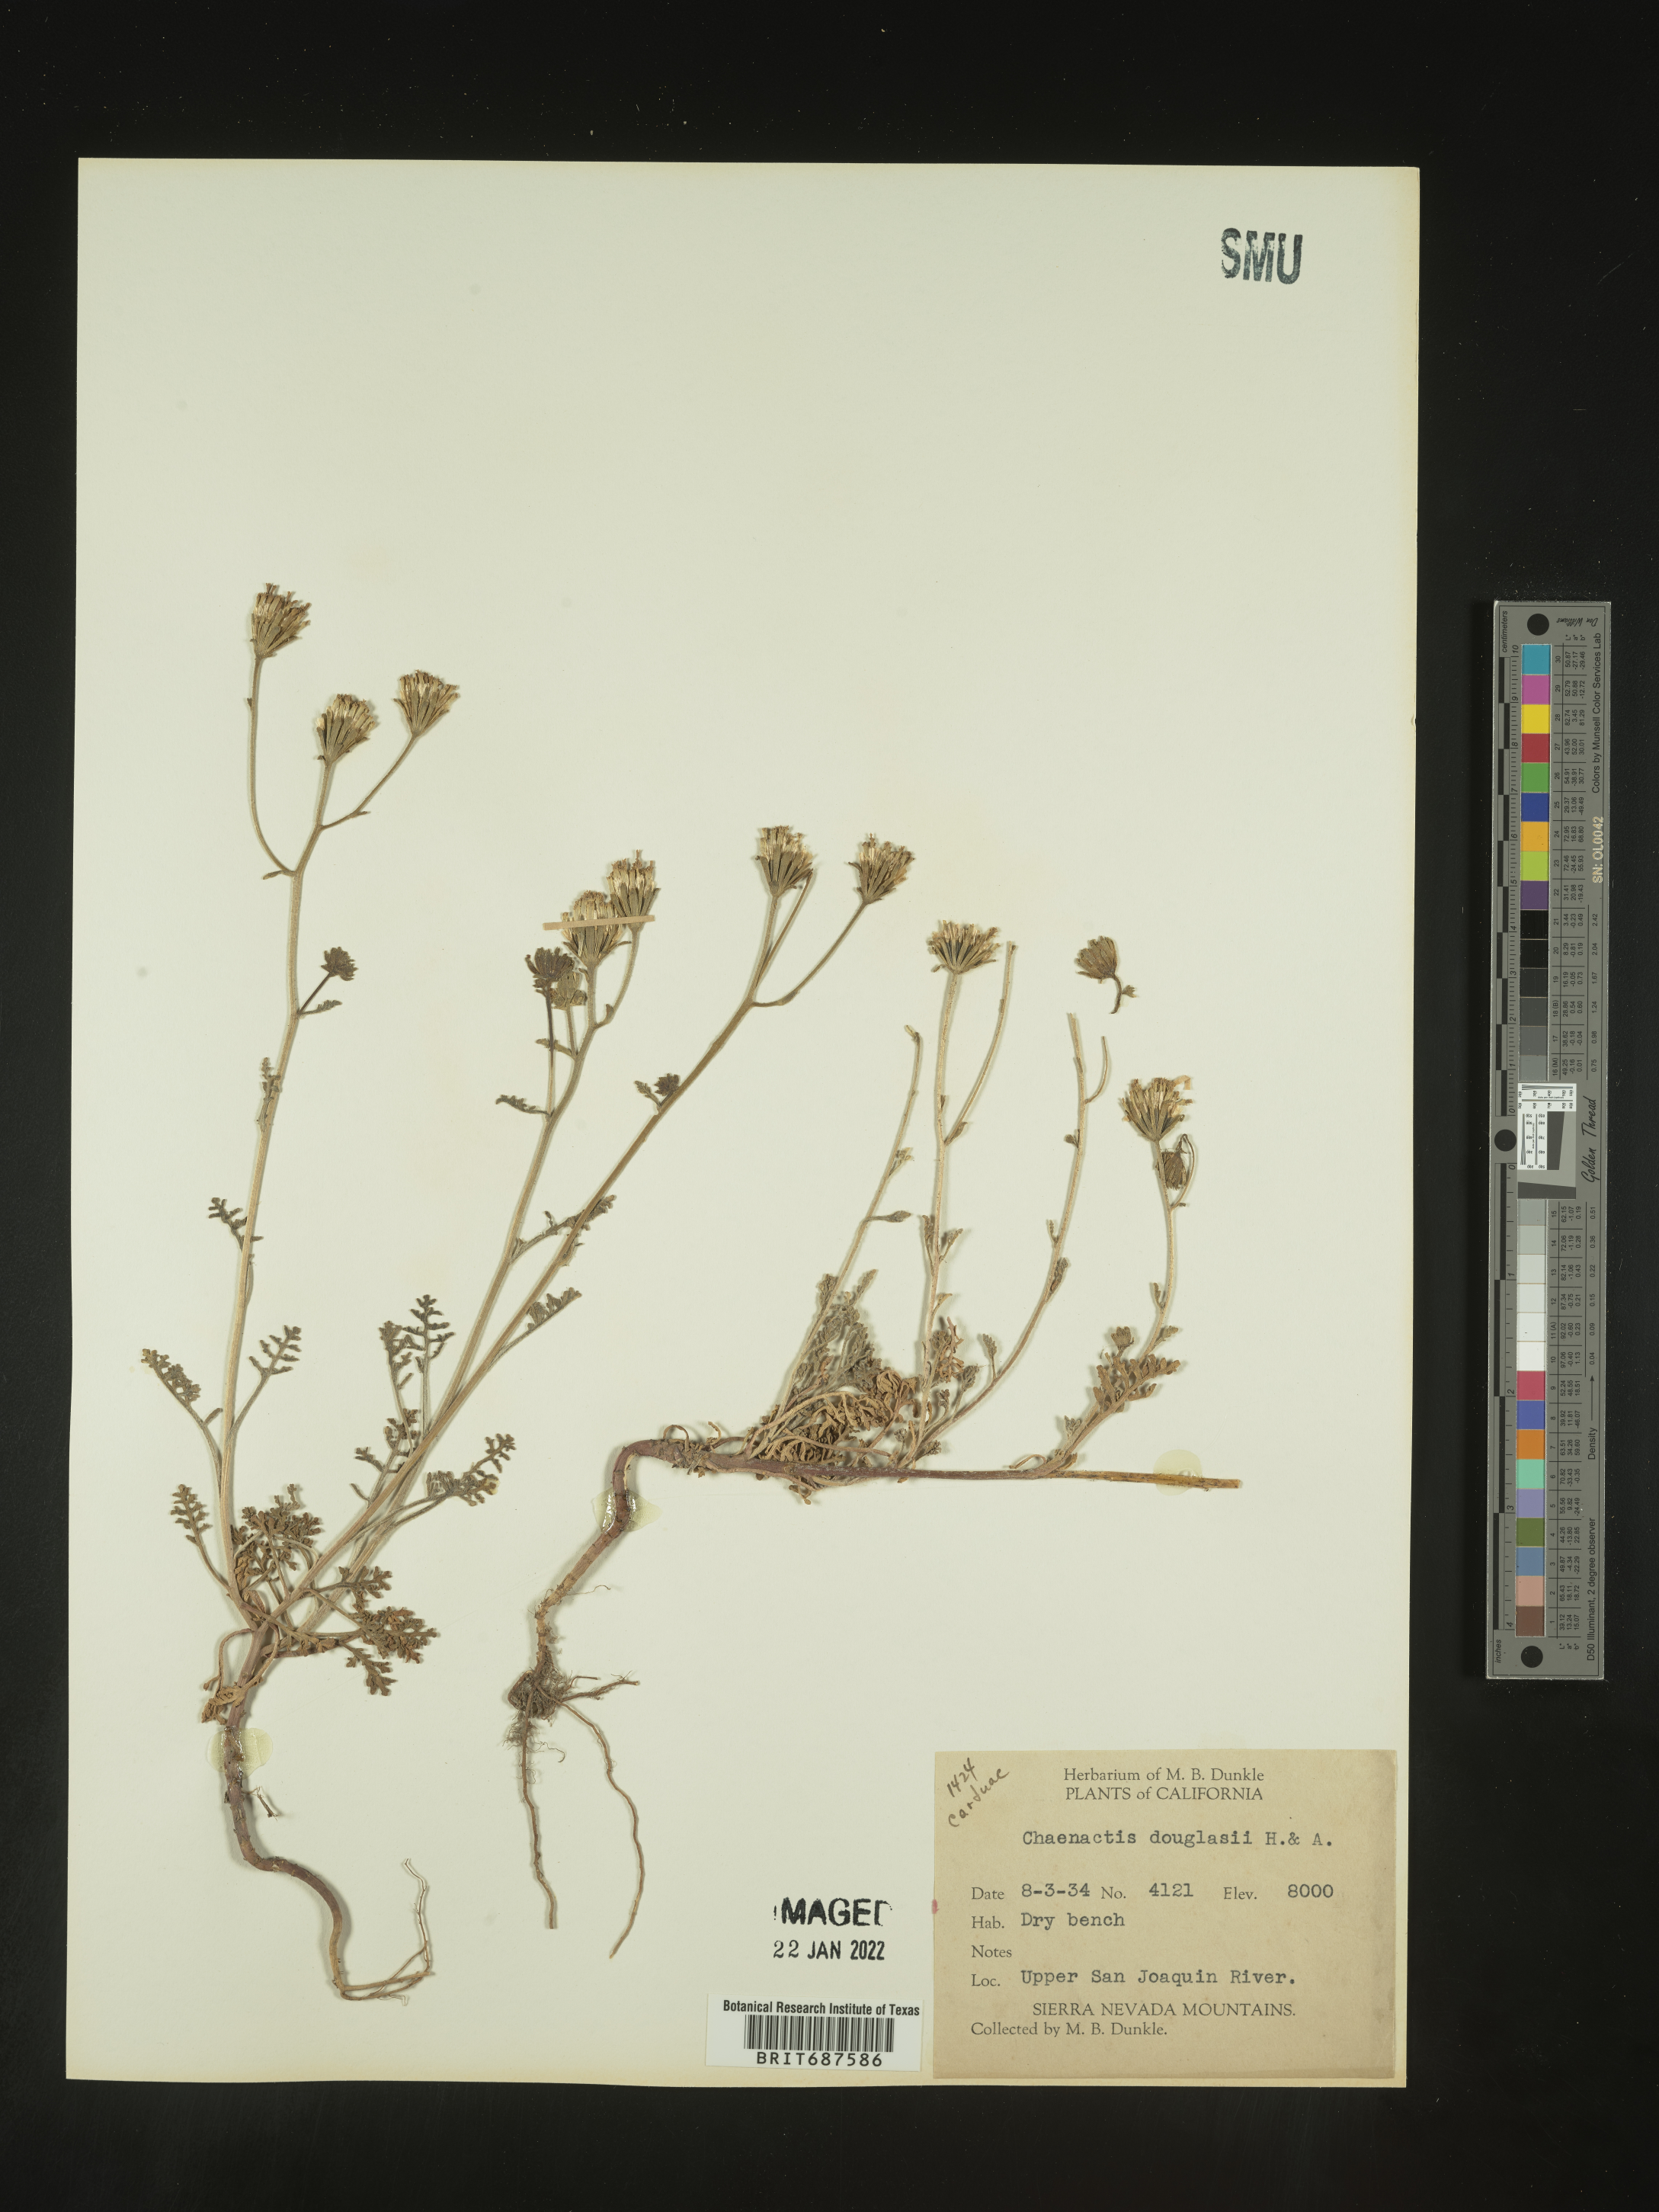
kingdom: Plantae
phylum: Tracheophyta
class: Magnoliopsida
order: Asterales
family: Asteraceae
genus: Chaenactis
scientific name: Chaenactis douglasii
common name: Hoary pincushion
